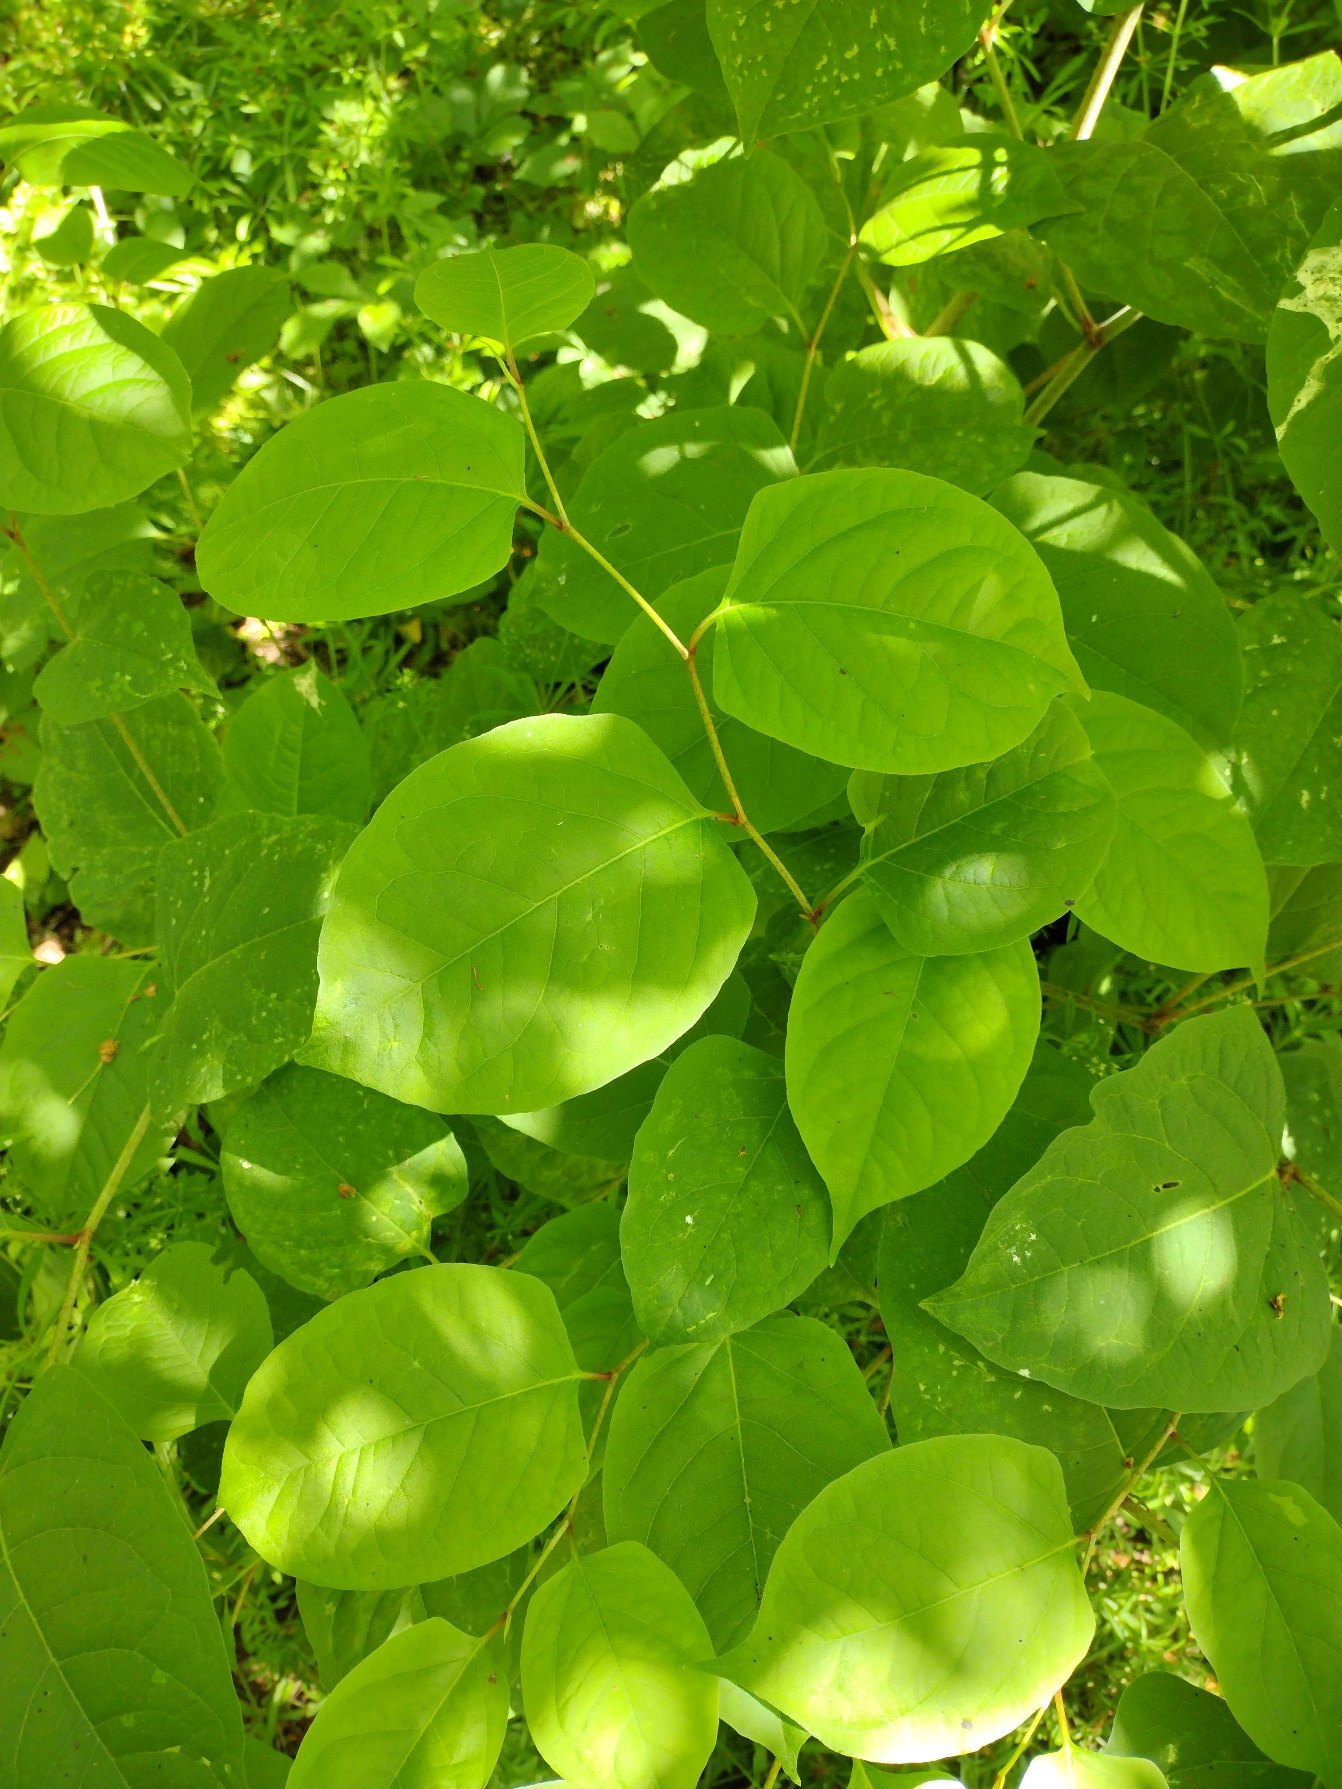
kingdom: Plantae
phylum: Tracheophyta
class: Magnoliopsida
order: Caryophyllales
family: Polygonaceae
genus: Reynoutria
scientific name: Reynoutria japonica
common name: Japan-pileurt
